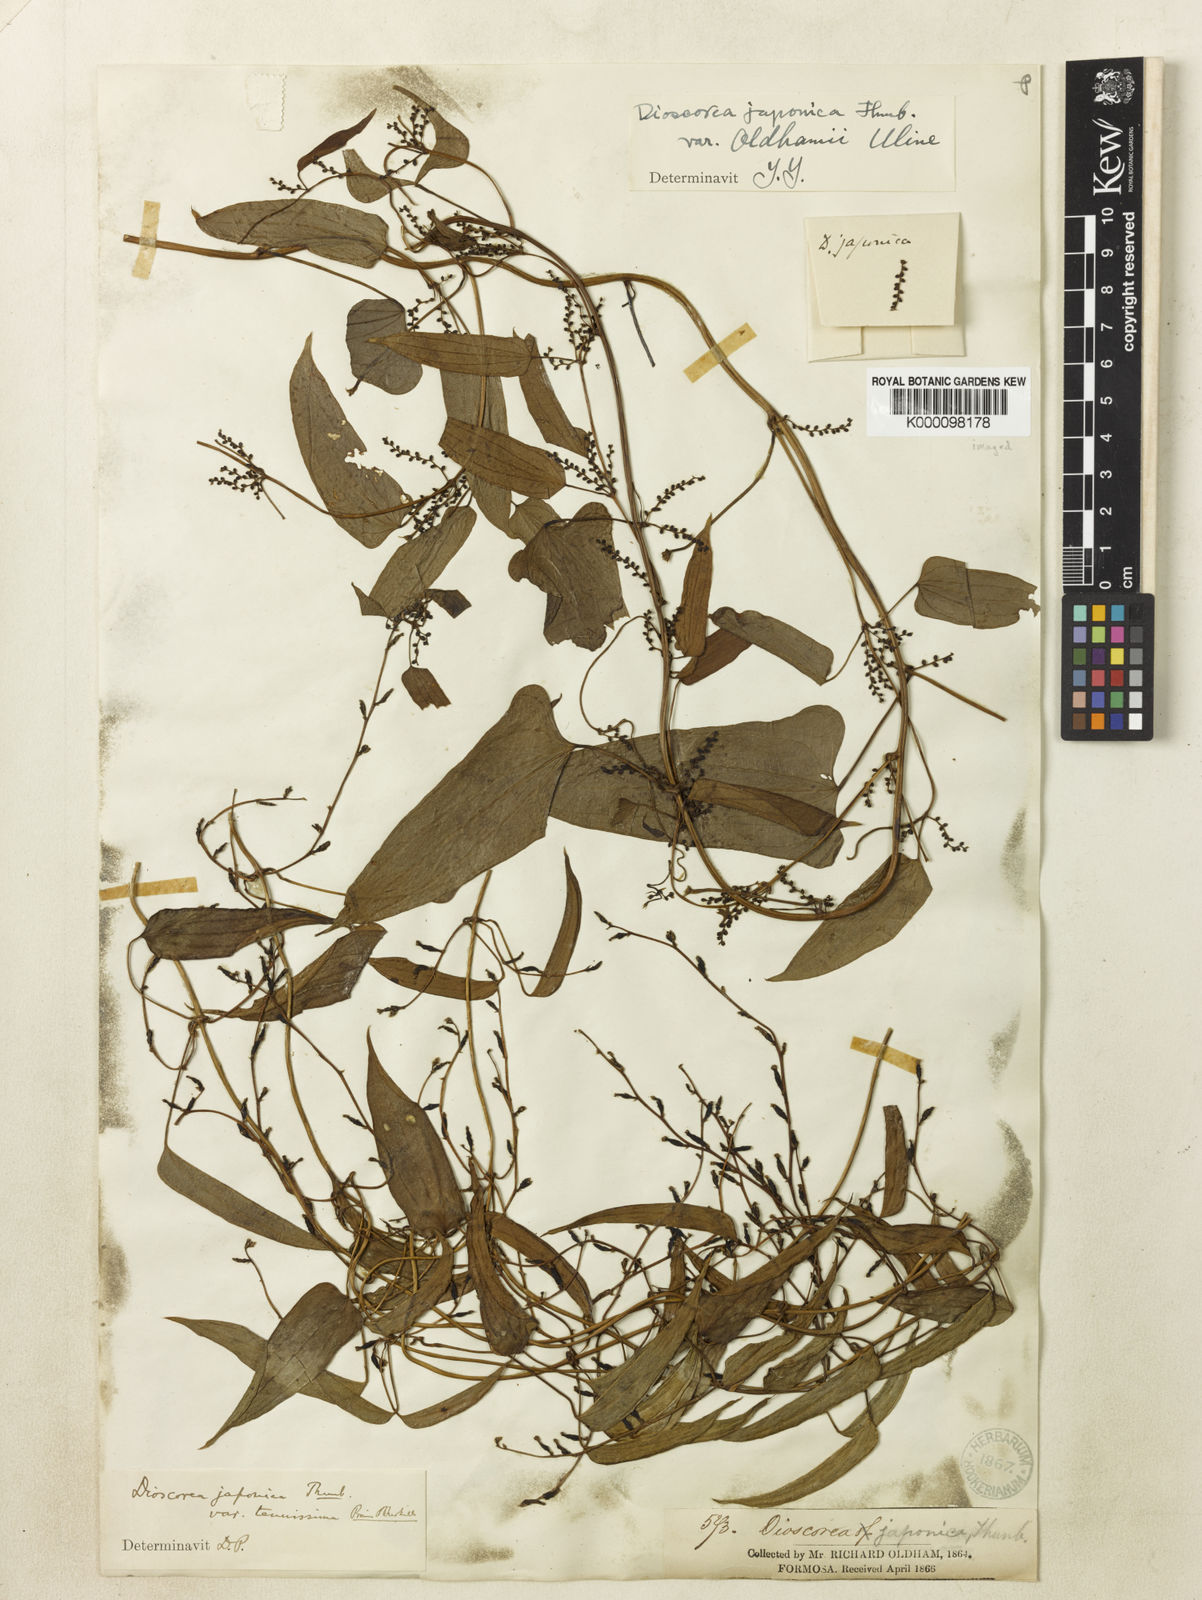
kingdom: Plantae
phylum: Tracheophyta
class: Liliopsida
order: Dioscoreales
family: Dioscoreaceae
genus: Dioscorea
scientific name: Dioscorea japonica
